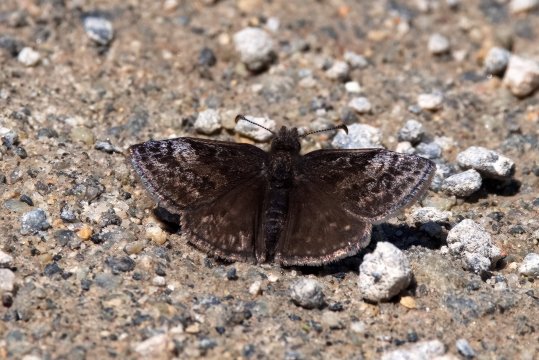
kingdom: Animalia
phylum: Arthropoda
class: Insecta
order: Lepidoptera
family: Hesperiidae
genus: Erynnis
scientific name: Erynnis icelus
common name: Dreamy Duskywing
